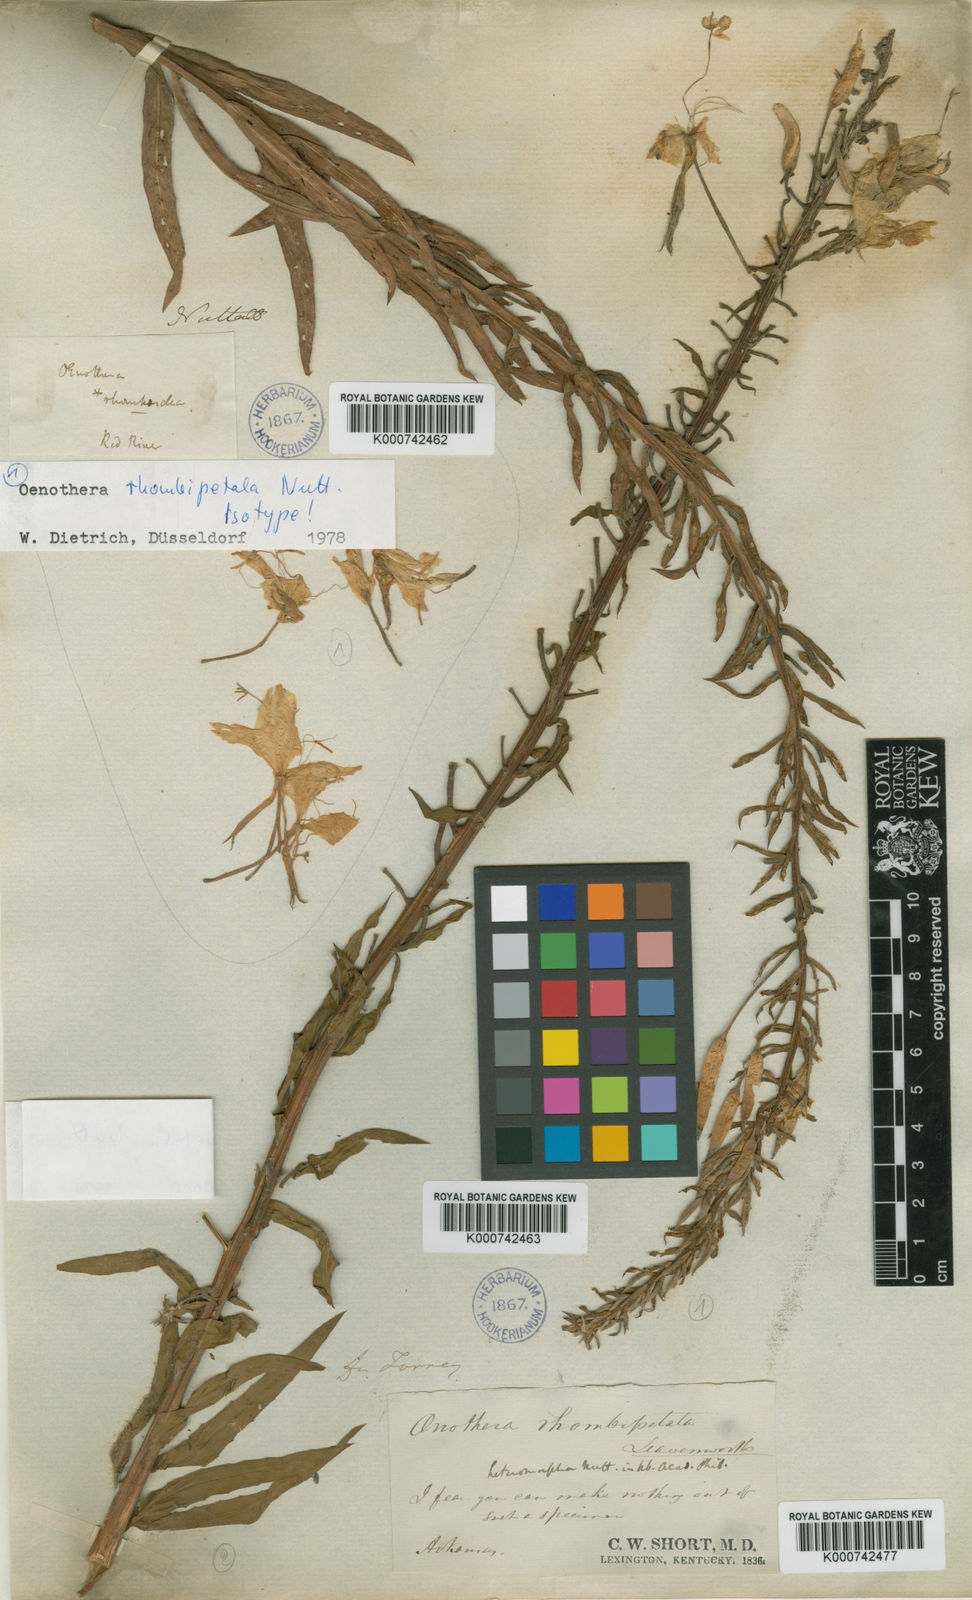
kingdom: Plantae
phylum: Tracheophyta
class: Magnoliopsida
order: Myrtales
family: Onagraceae
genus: Oenothera
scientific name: Oenothera
